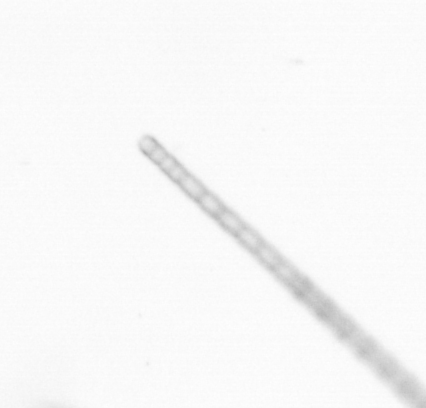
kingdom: Chromista
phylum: Ochrophyta
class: Bacillariophyceae
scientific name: Bacillariophyceae
